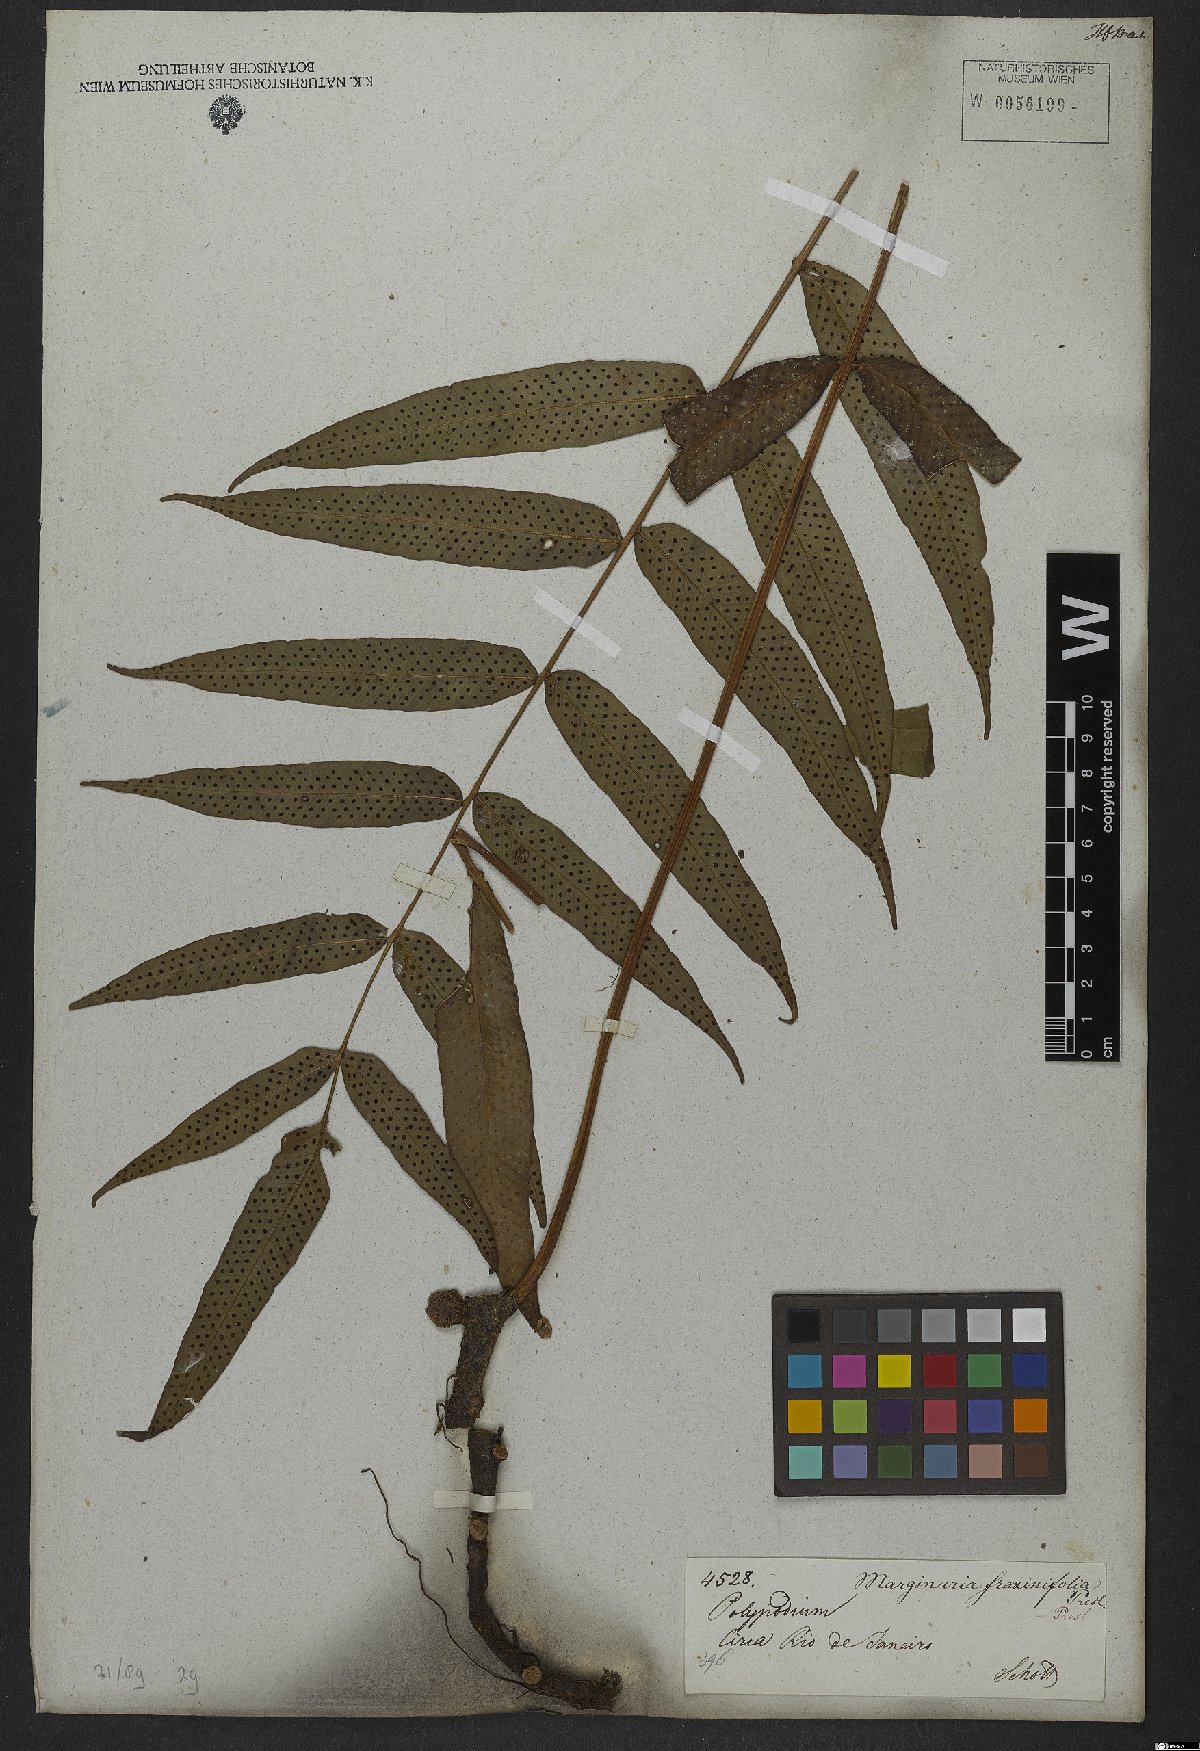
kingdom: Plantae
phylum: Tracheophyta
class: Polypodiopsida
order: Polypodiales
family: Polypodiaceae
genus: Serpocaulon
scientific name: Serpocaulon fraxinifolium
